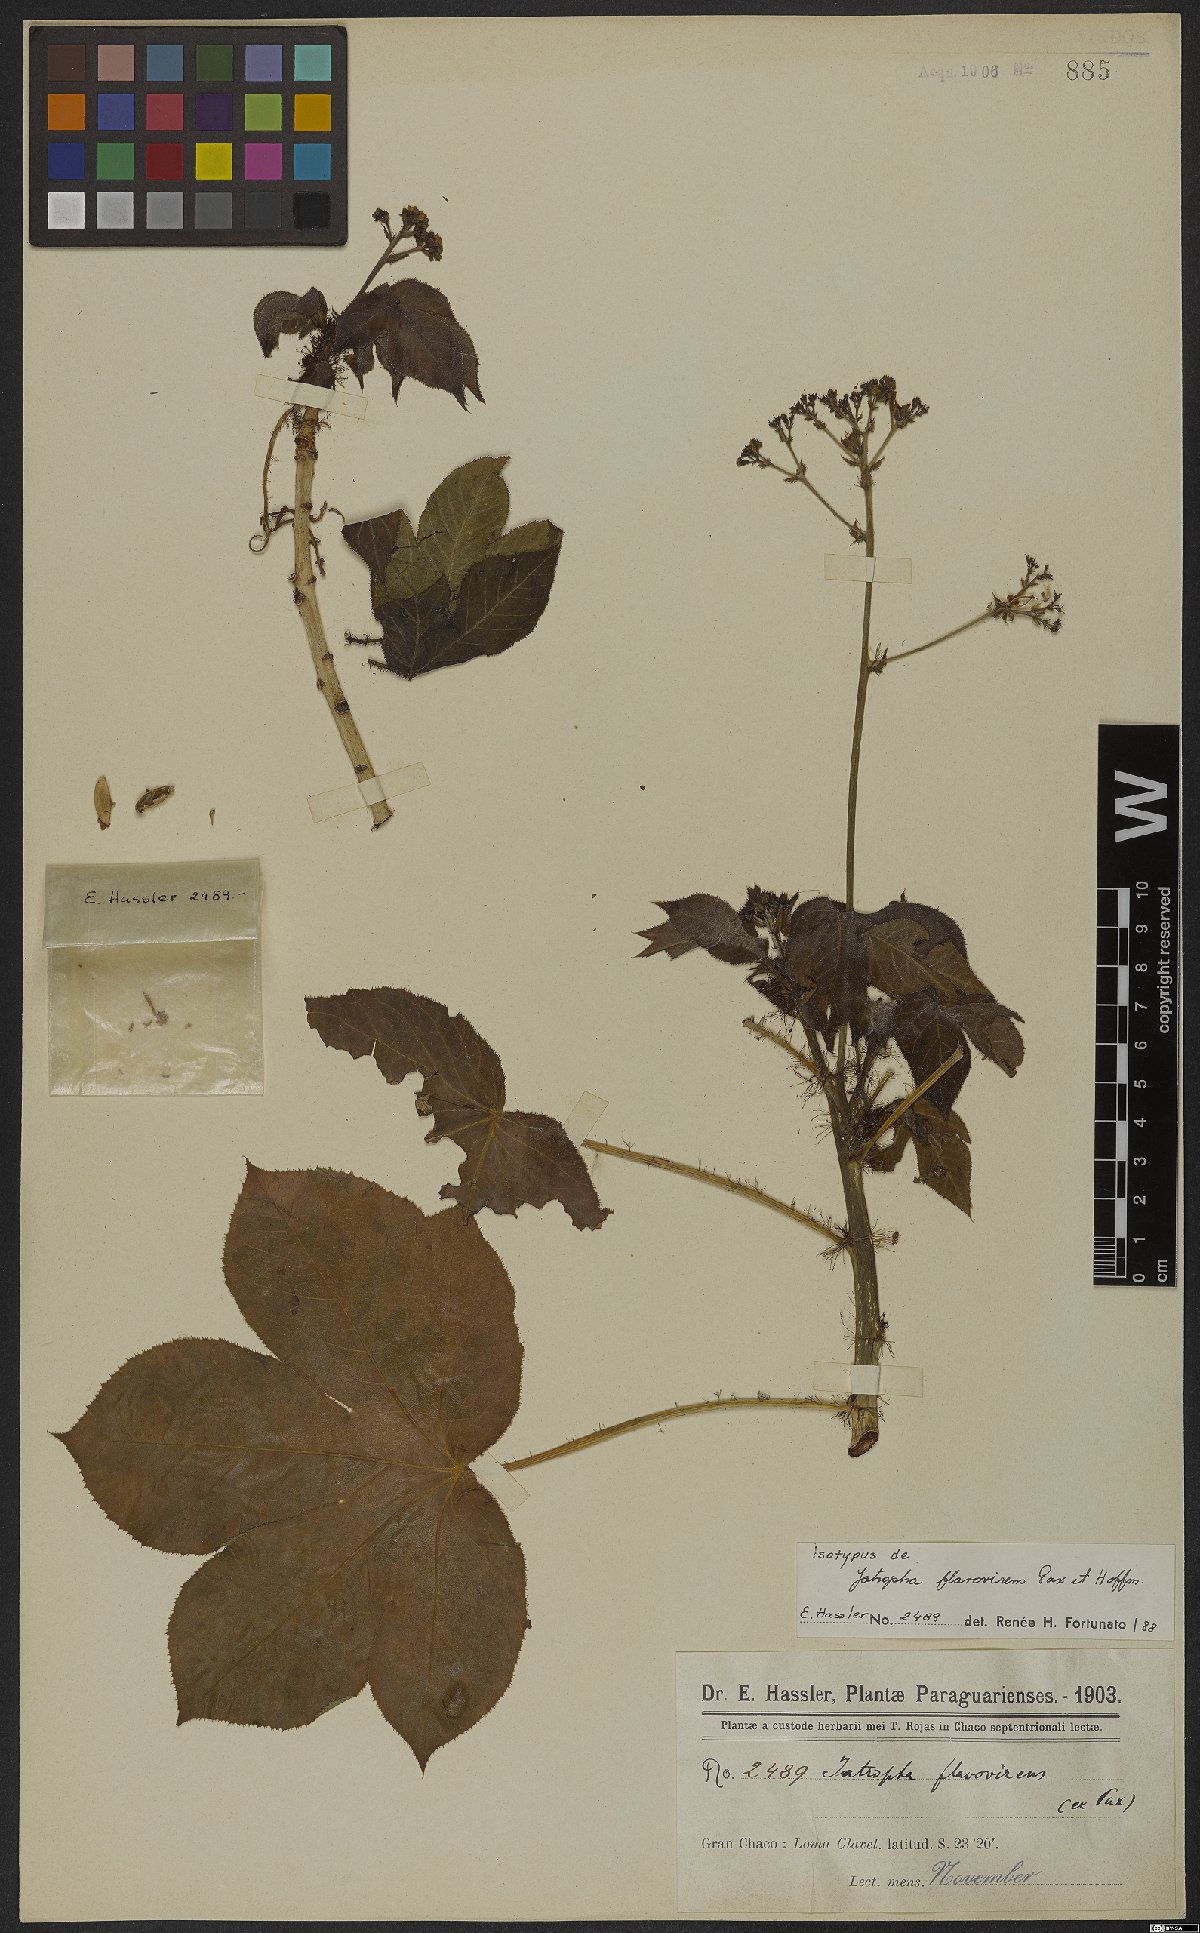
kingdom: Plantae
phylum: Tracheophyta
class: Magnoliopsida
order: Malpighiales
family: Euphorbiaceae
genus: Jatropha
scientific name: Jatropha hippocastanifolia
